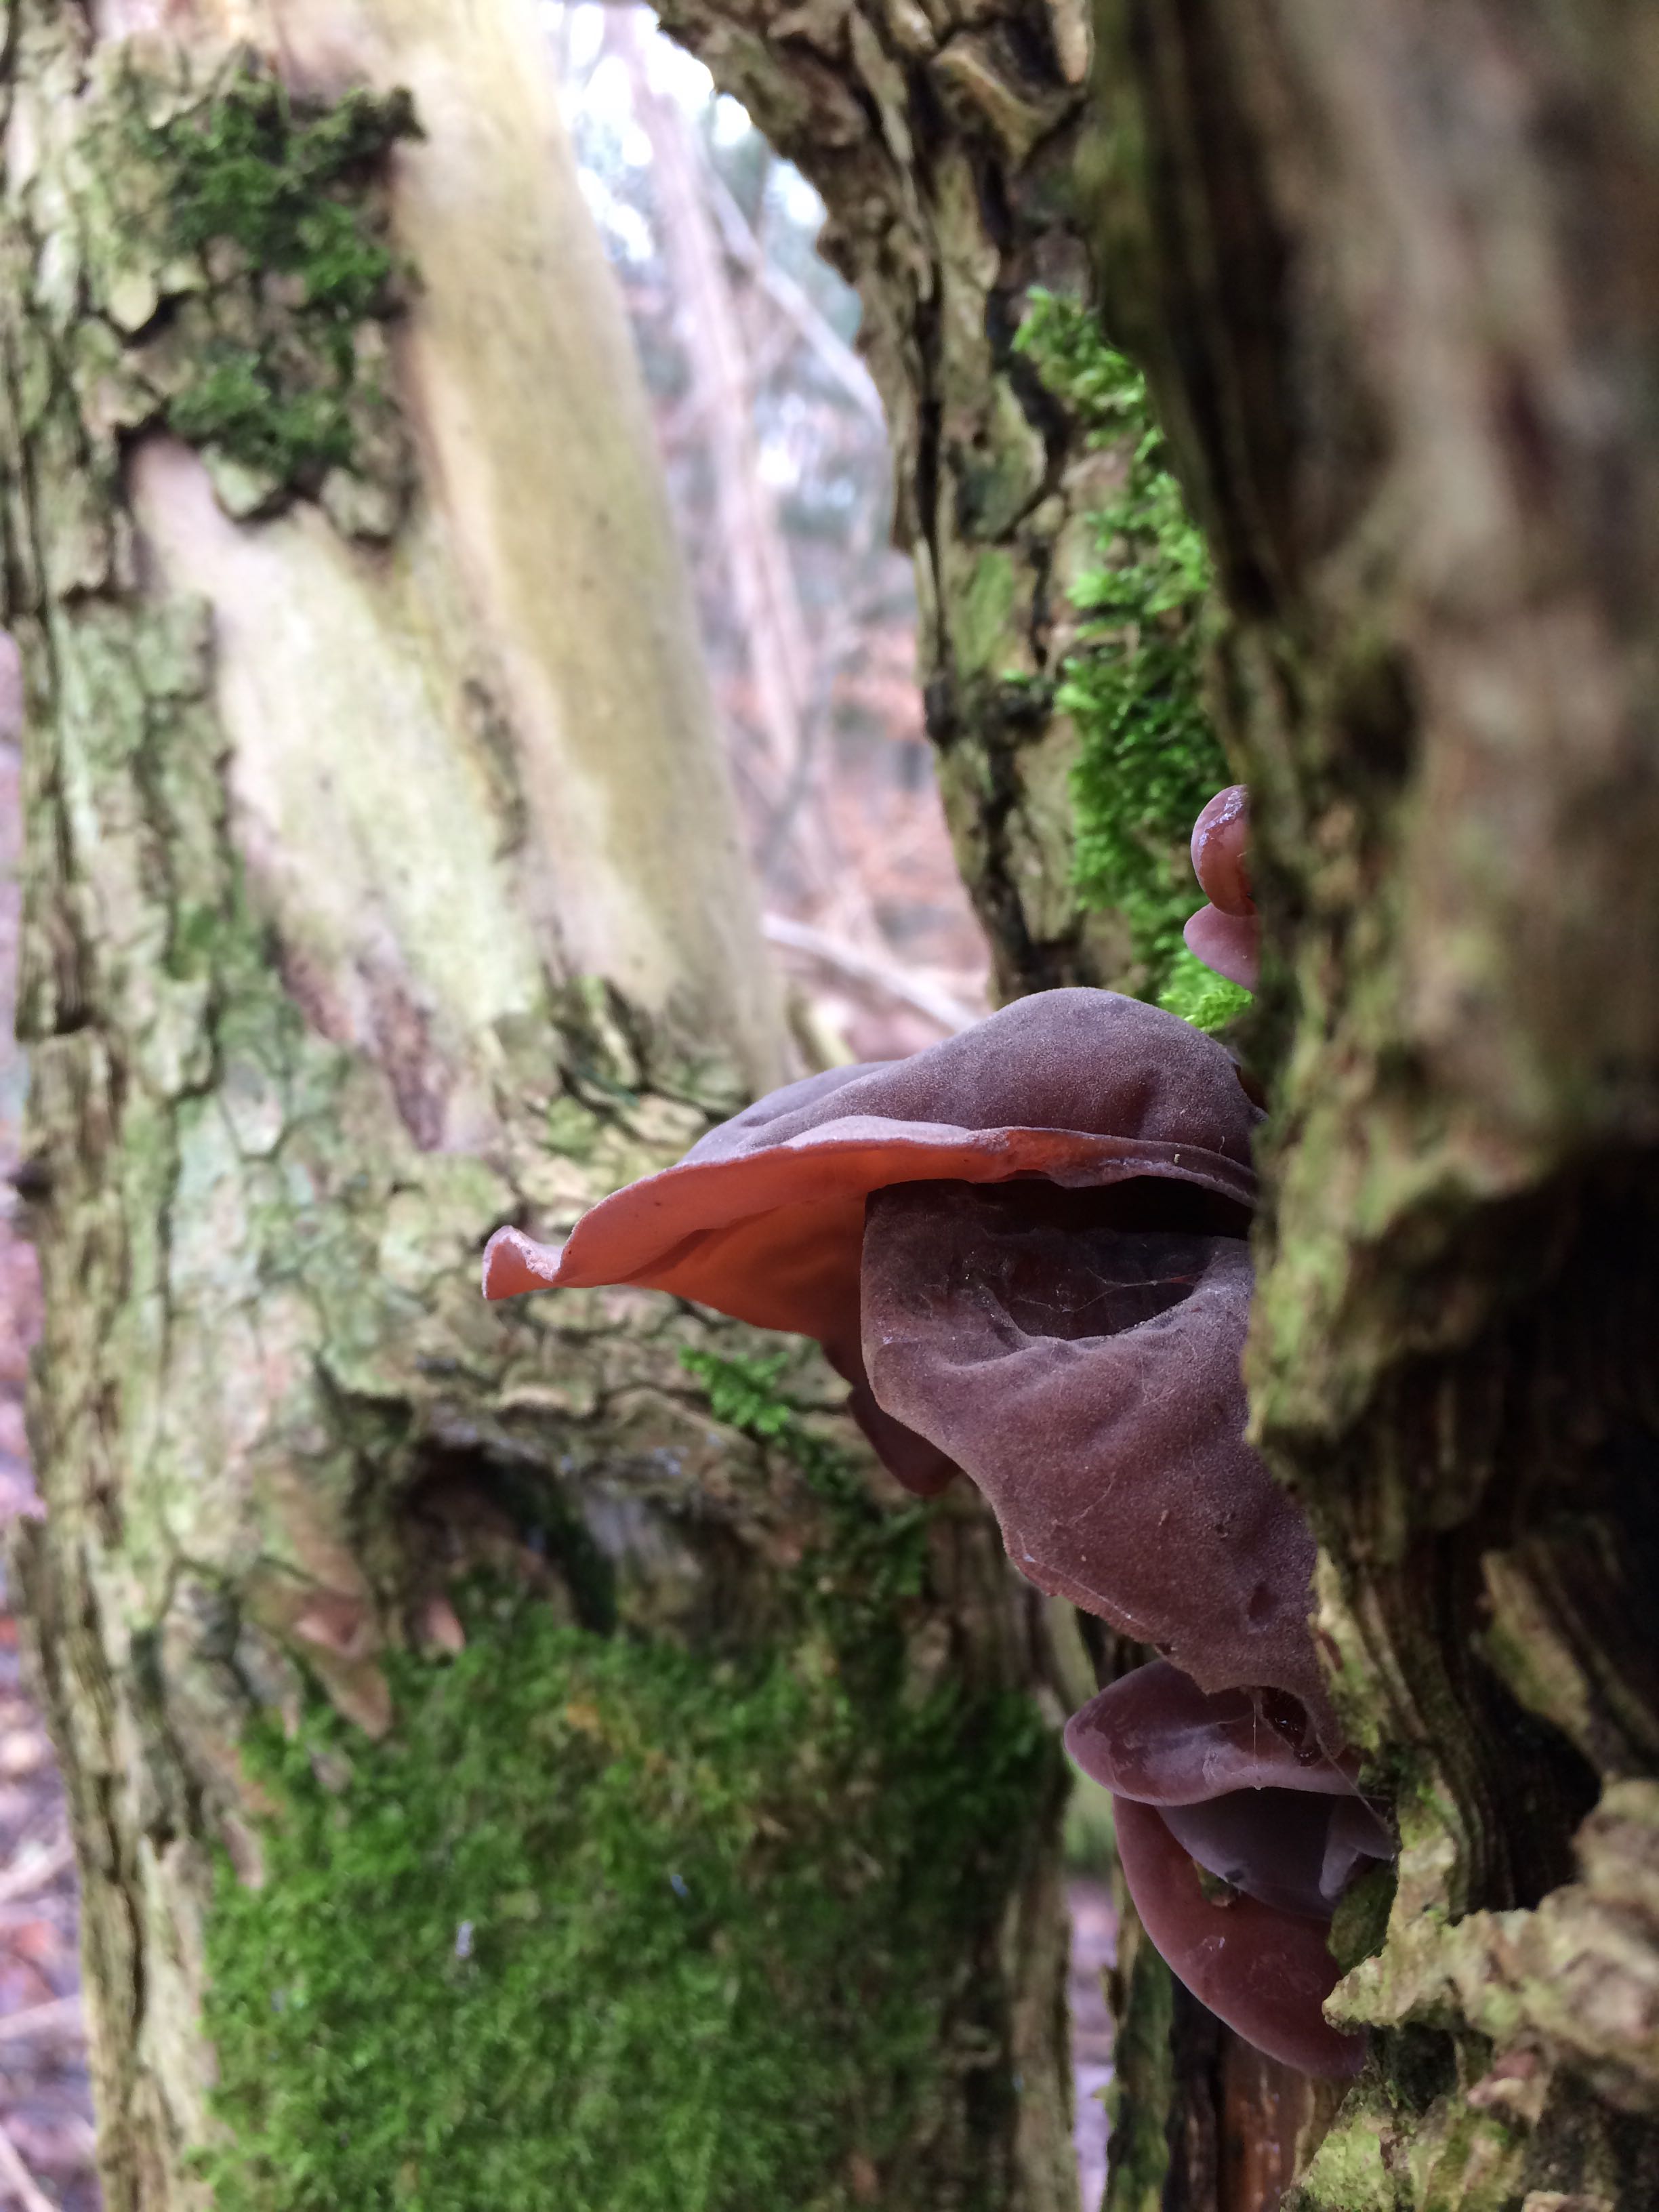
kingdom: Fungi
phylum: Basidiomycota
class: Agaricomycetes
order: Auriculariales
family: Auriculariaceae
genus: Auricularia
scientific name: Auricularia auricula-judae
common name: almindelig judasøre
